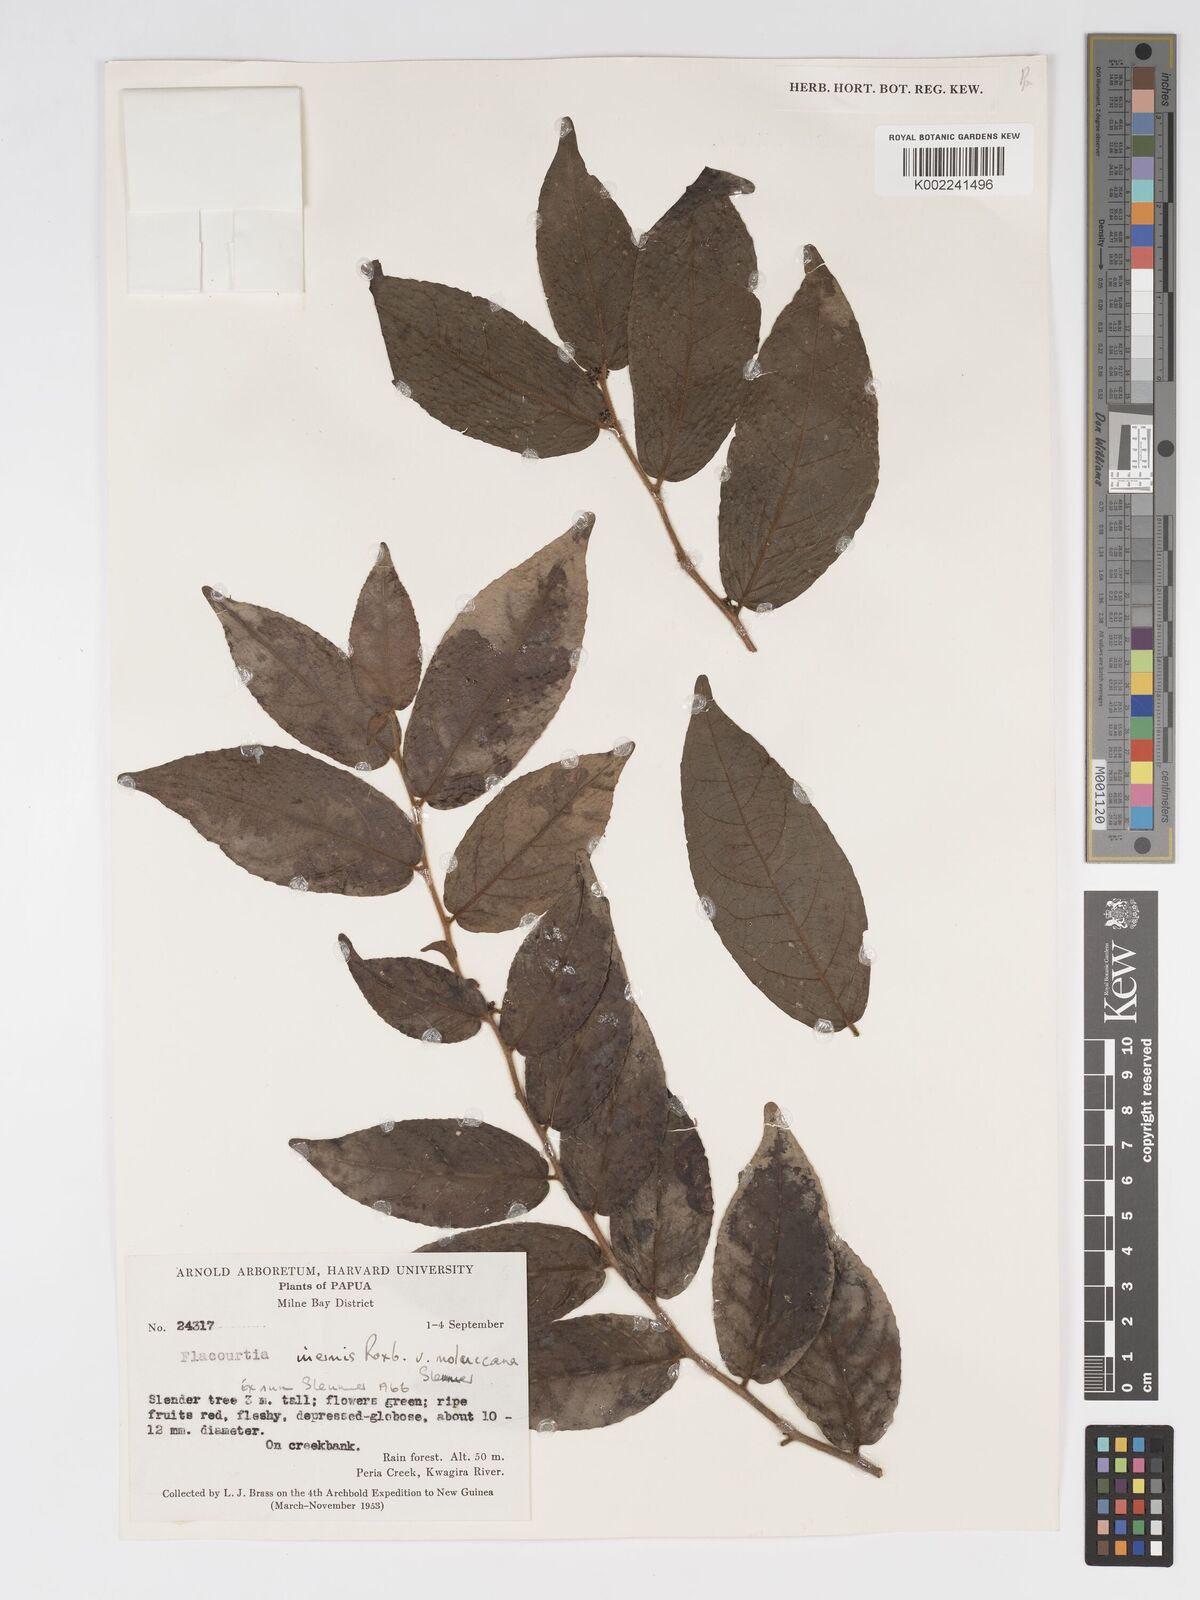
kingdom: Plantae
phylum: Tracheophyta
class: Magnoliopsida
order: Malpighiales
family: Salicaceae
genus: Flacourtia
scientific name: Flacourtia inermis
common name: Plum-of-martinique
